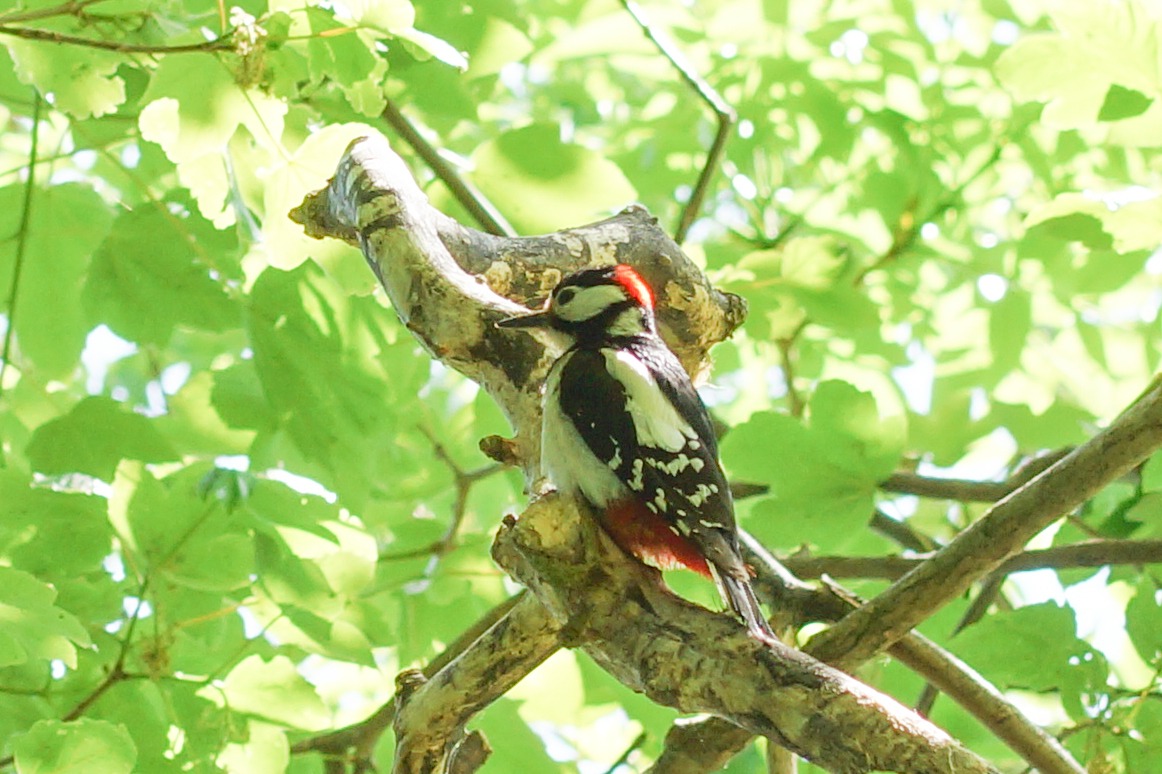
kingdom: Animalia
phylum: Chordata
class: Aves
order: Piciformes
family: Picidae
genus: Dendrocopos
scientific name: Dendrocopos major
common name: Stor flagspætte
